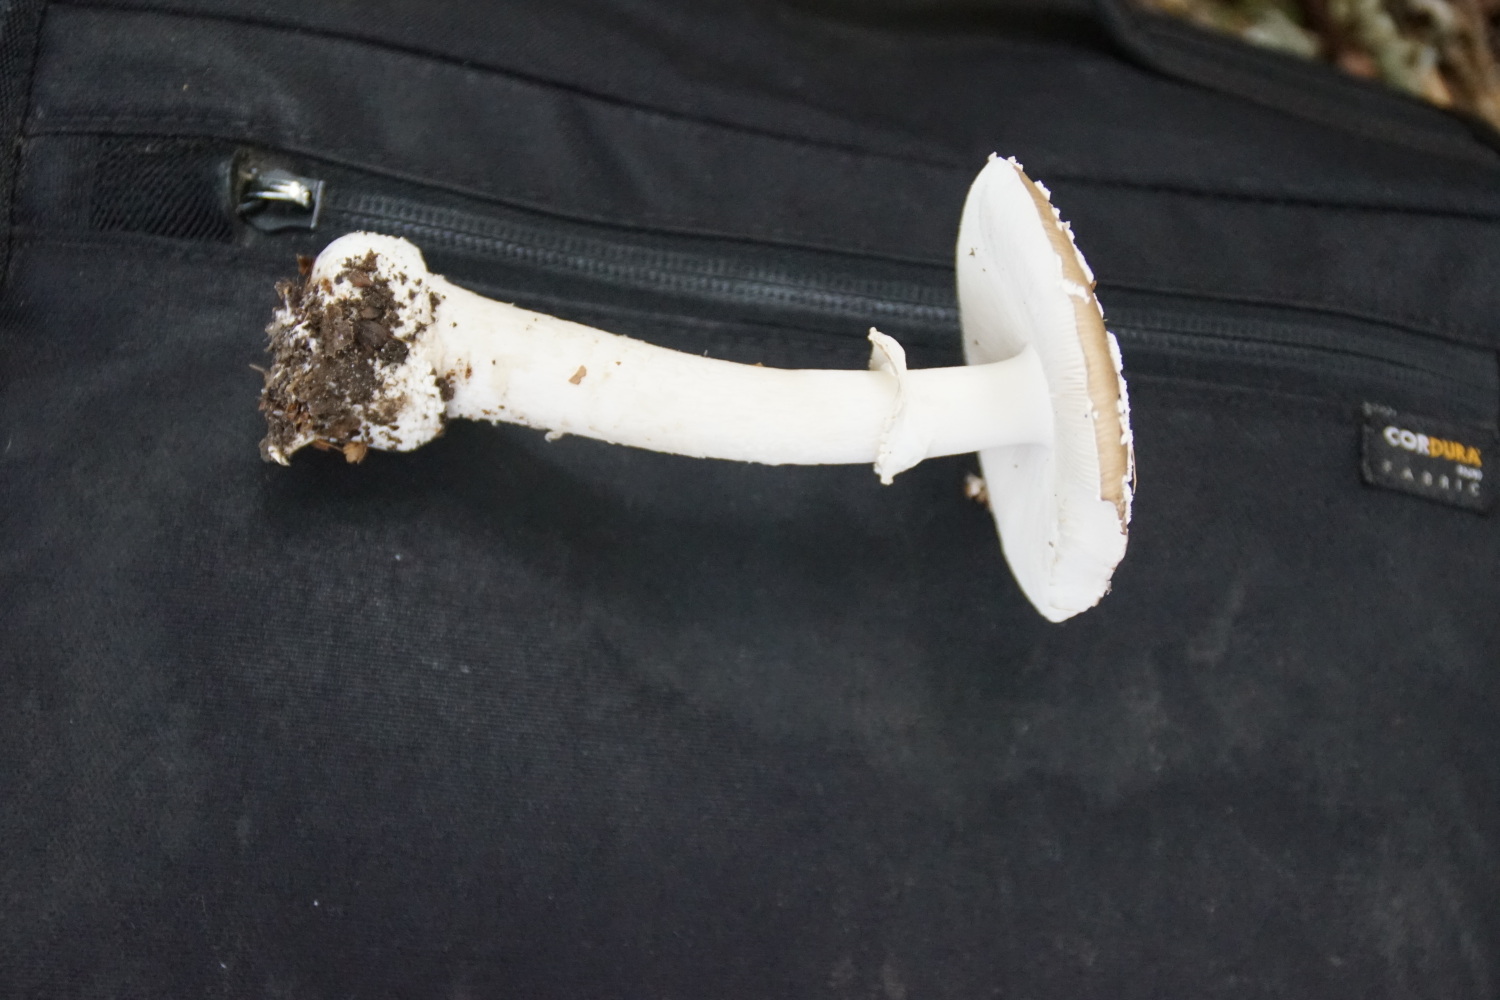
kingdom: Fungi
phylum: Basidiomycota
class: Agaricomycetes
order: Agaricales
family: Amanitaceae
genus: Amanita
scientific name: Amanita pantherina
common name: panter-fluesvamp
